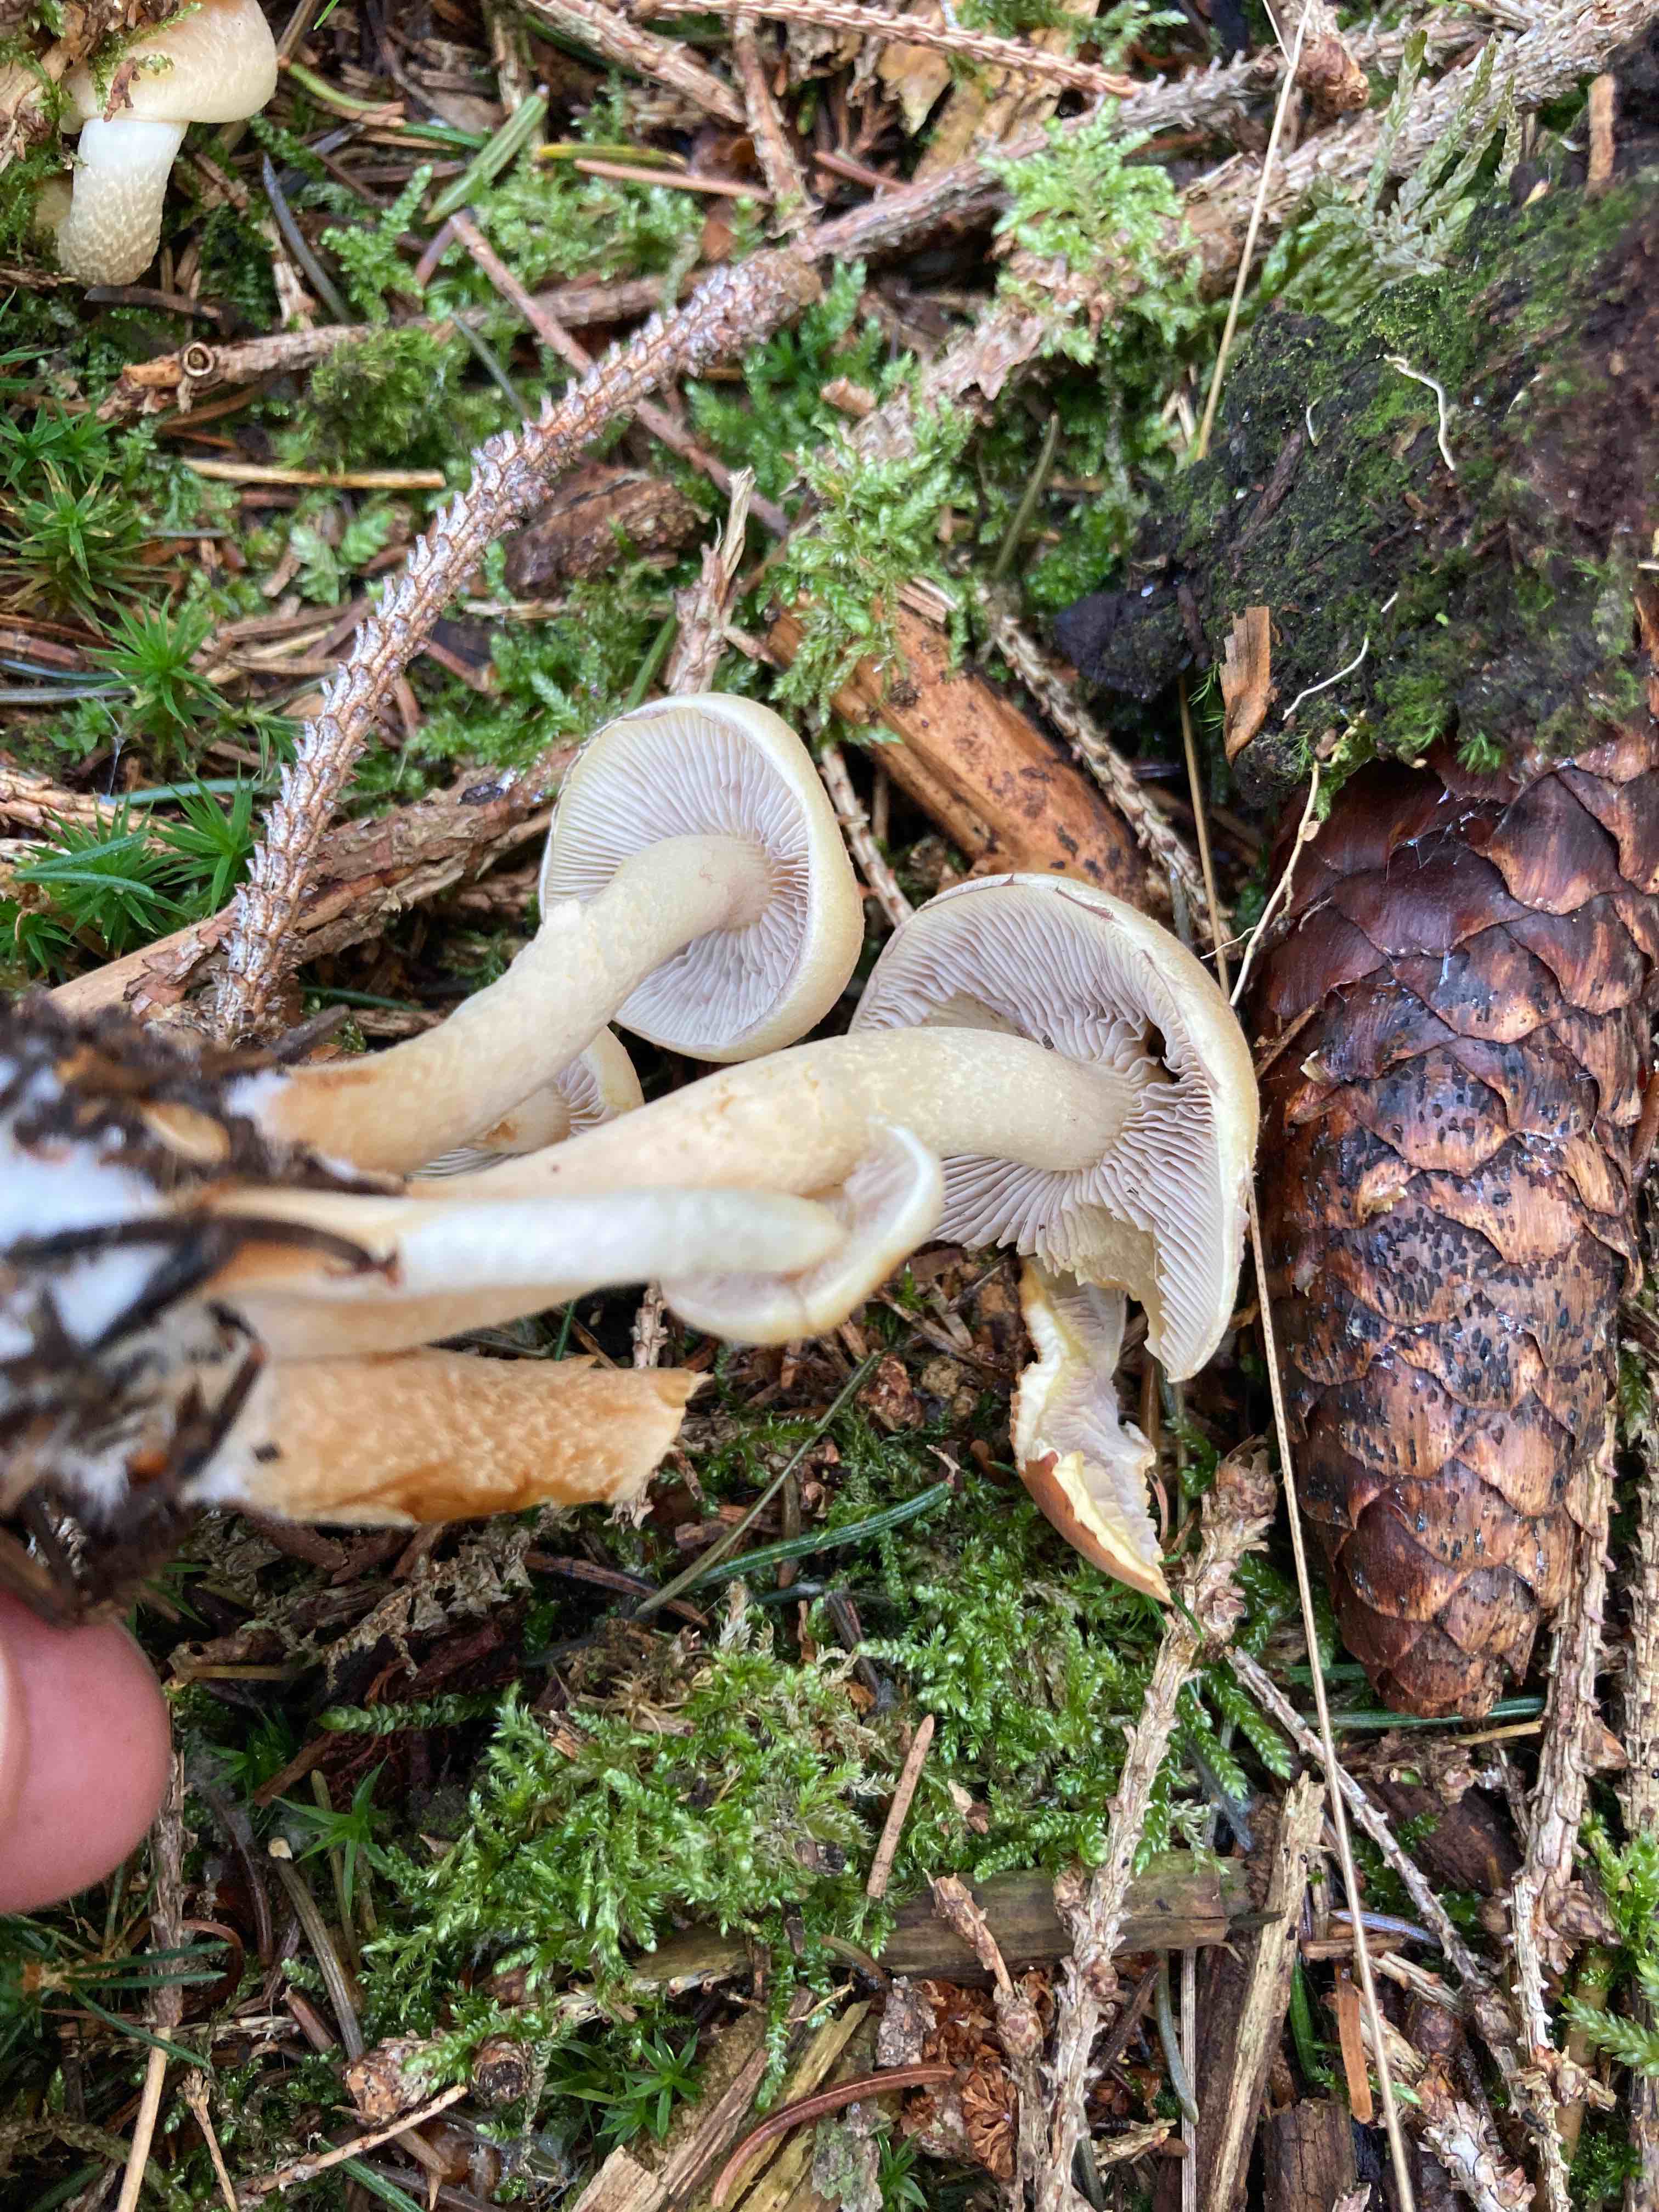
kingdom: Fungi
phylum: Basidiomycota
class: Agaricomycetes
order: Agaricales
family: Strophariaceae
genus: Hypholoma
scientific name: Hypholoma capnoides
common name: gran-svovlhat
